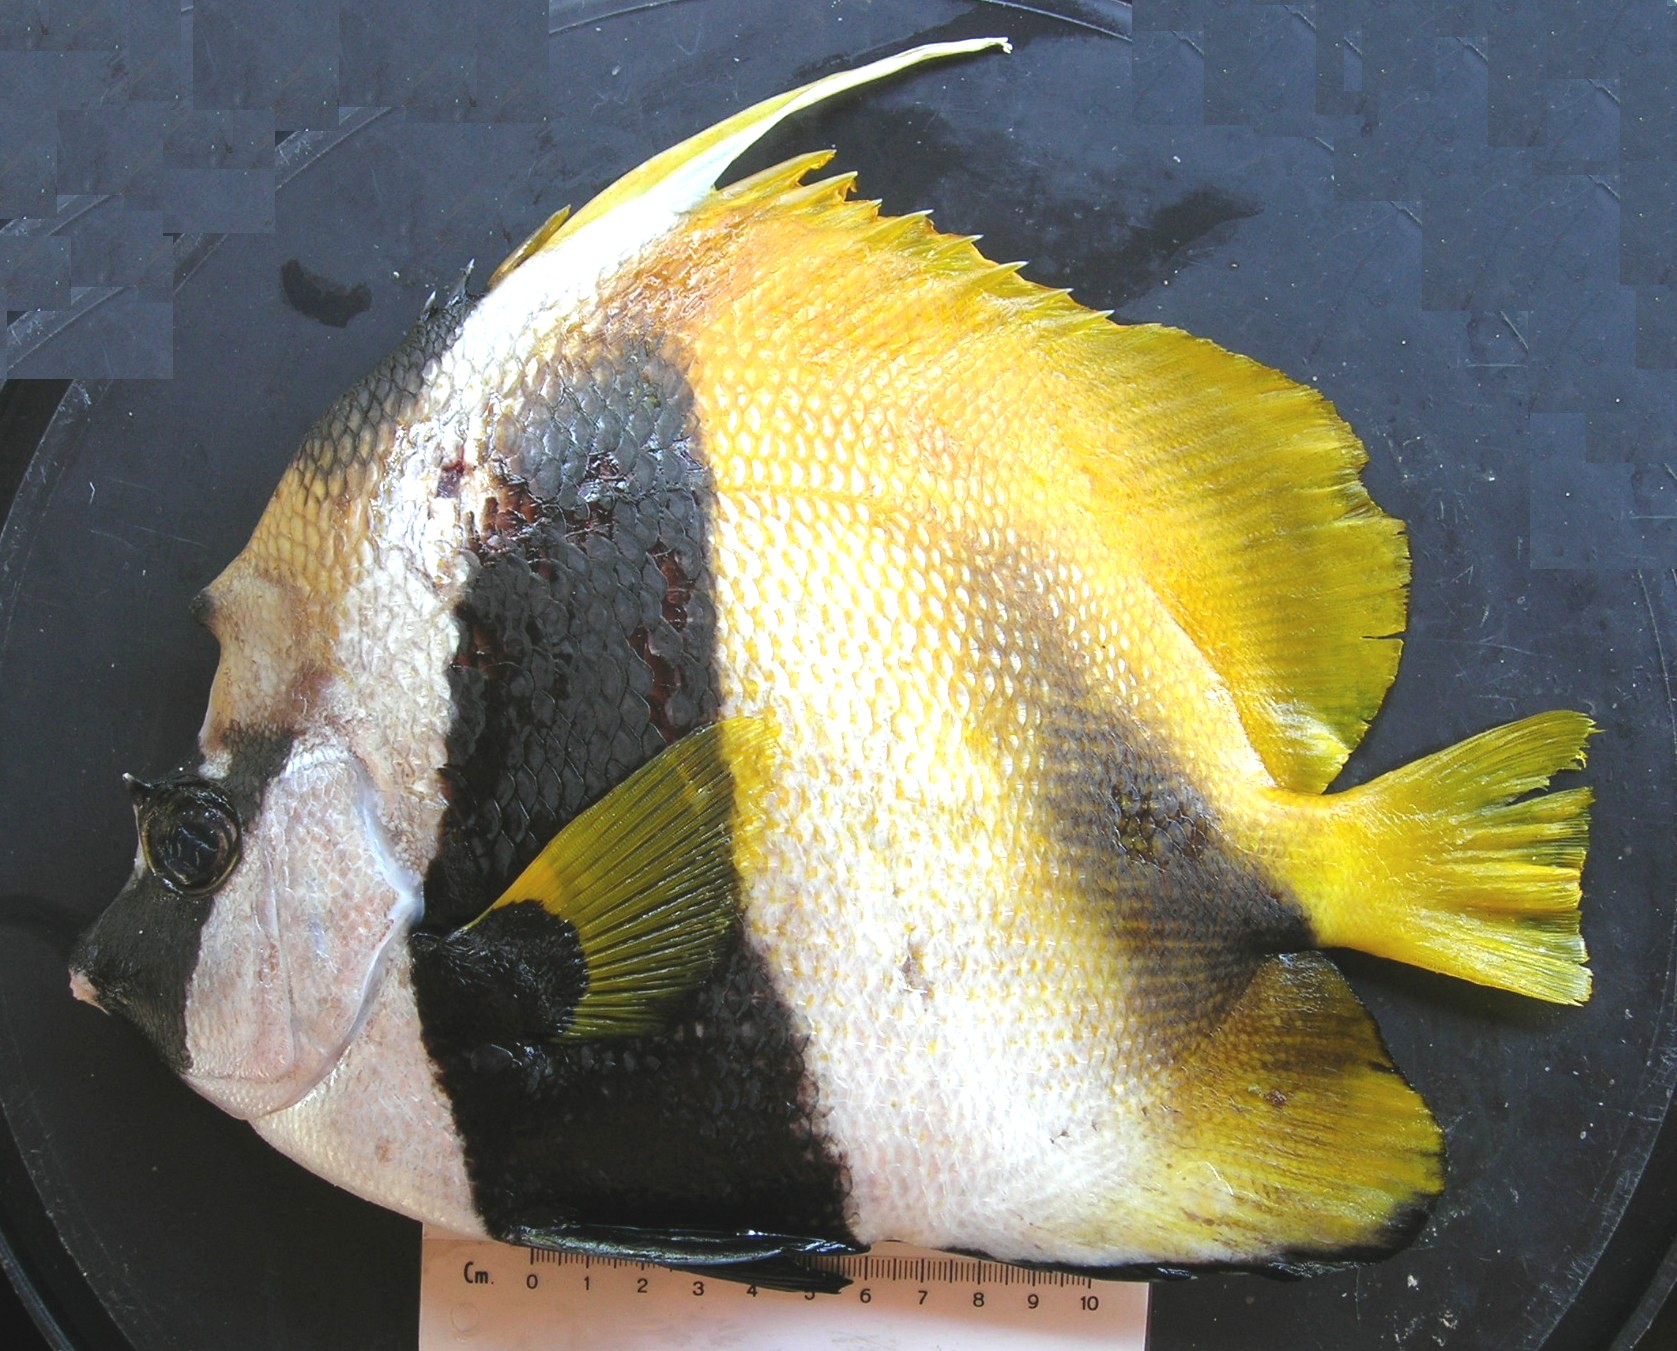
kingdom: Animalia
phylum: Chordata
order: Perciformes
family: Chaetodontidae
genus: Heniochus
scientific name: Heniochus monoceros
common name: Masked bannerfish
